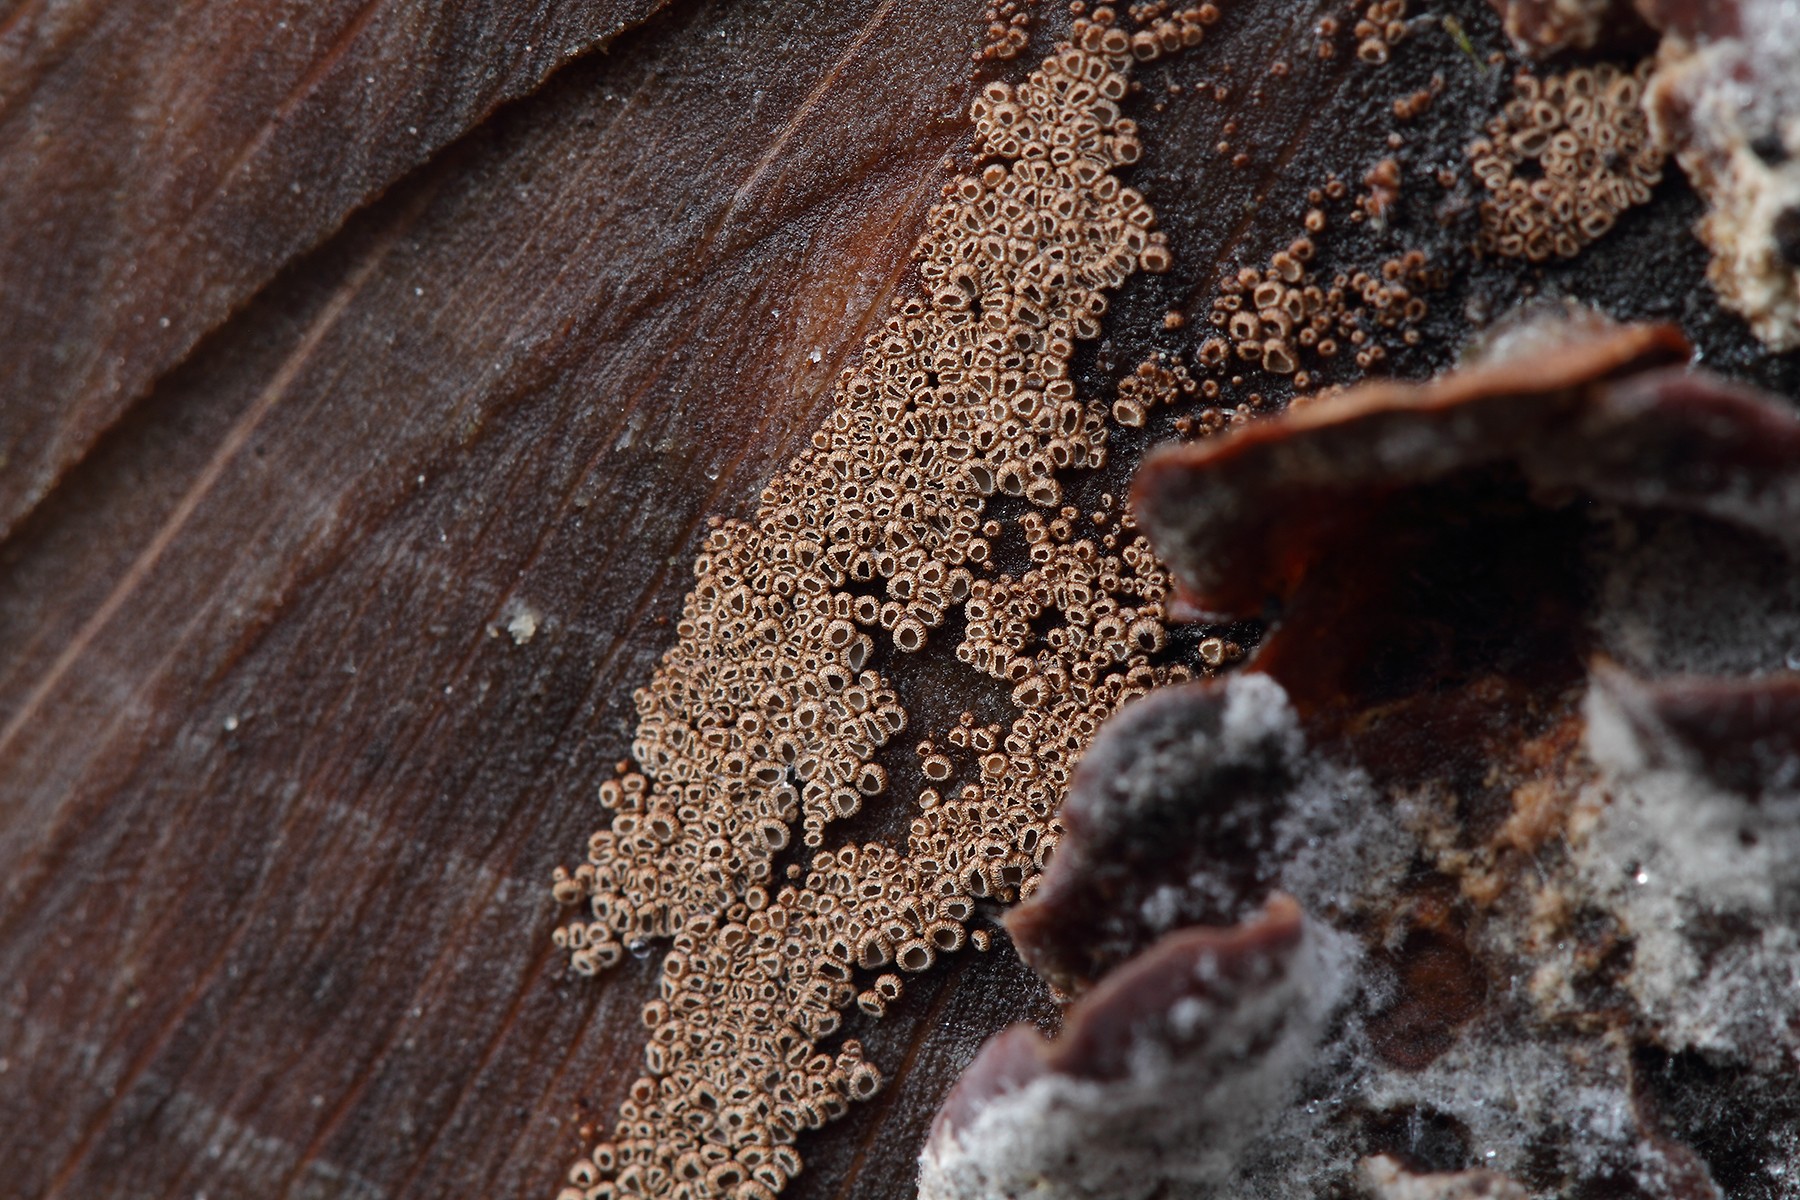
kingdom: Fungi
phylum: Basidiomycota
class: Agaricomycetes
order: Agaricales
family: Niaceae
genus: Merismodes
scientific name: Merismodes anomala
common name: almindelig læderskål
